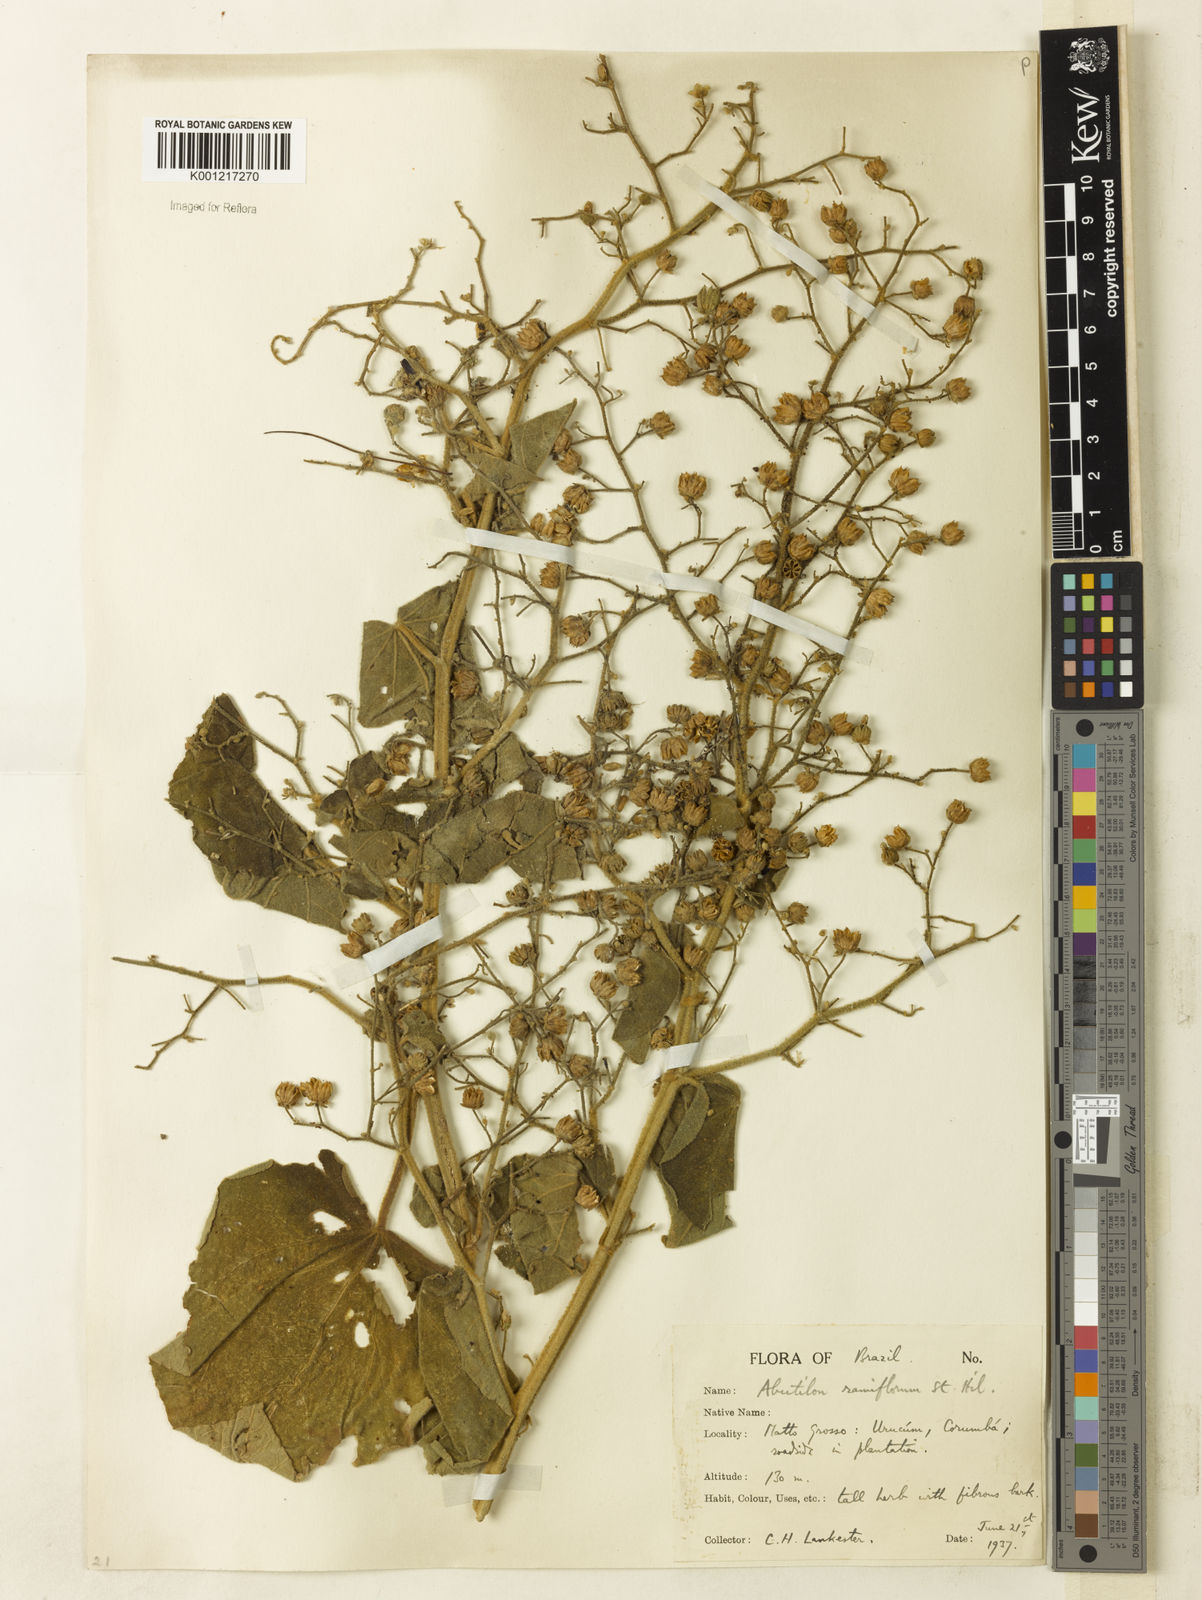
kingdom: Plantae
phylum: Tracheophyta
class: Magnoliopsida
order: Malvales
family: Malvaceae
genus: Abutilon
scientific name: Abutilon ramiflorum
